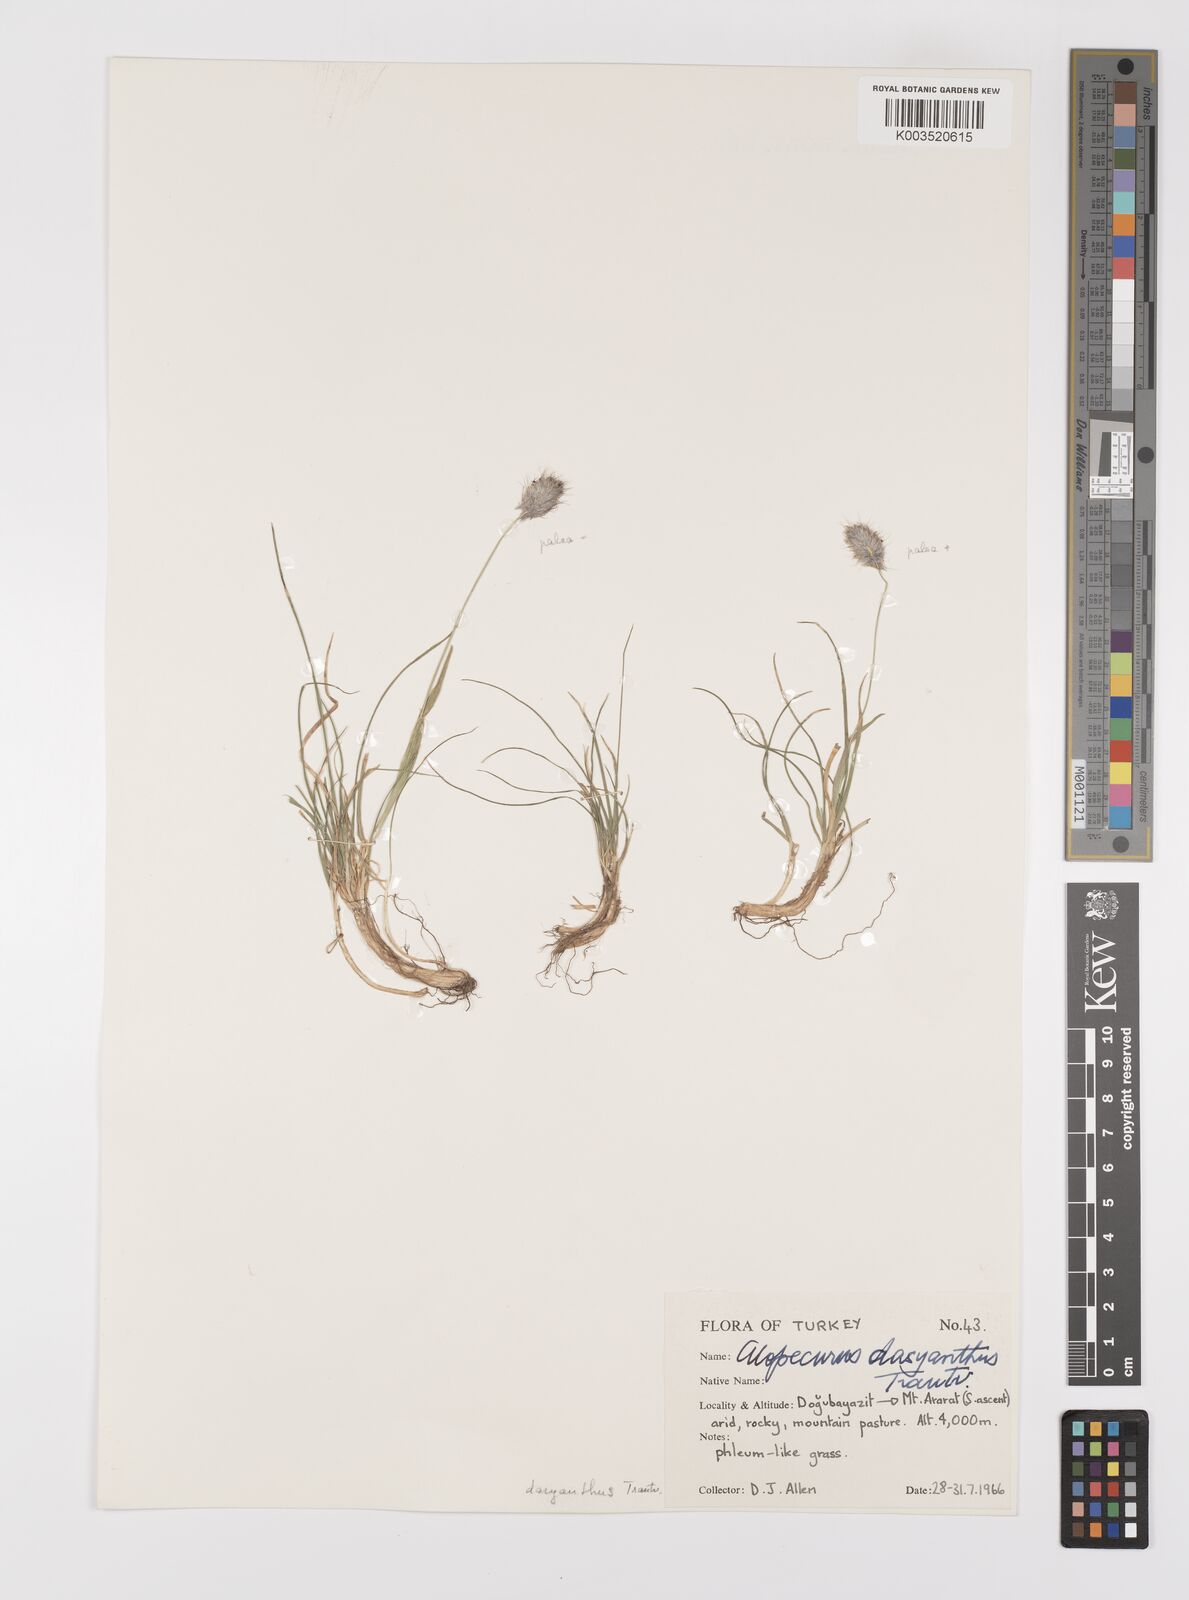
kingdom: Plantae
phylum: Tracheophyta
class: Liliopsida
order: Poales
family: Poaceae
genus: Alopecurus
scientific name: Alopecurus dasyanthus
